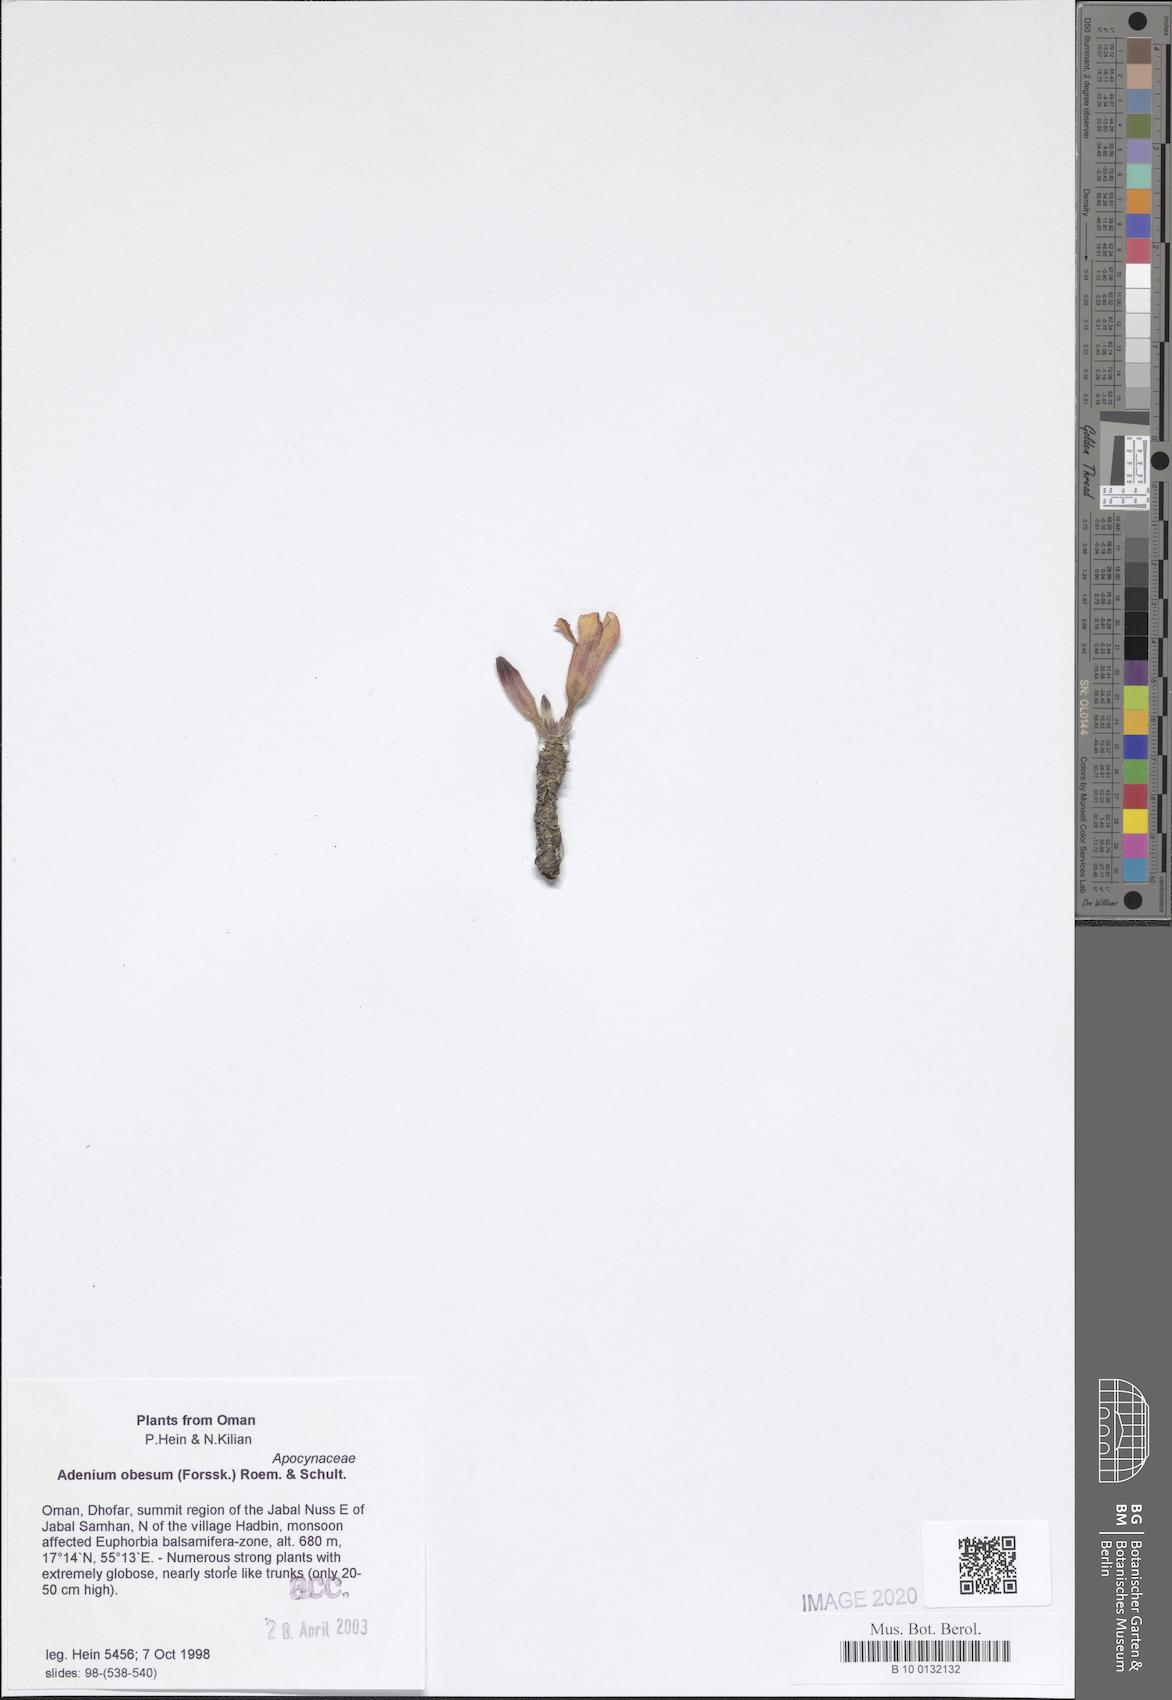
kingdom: Plantae
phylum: Tracheophyta
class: Magnoliopsida
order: Gentianales
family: Apocynaceae
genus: Adenium
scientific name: Adenium obesum
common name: Desert-rose
